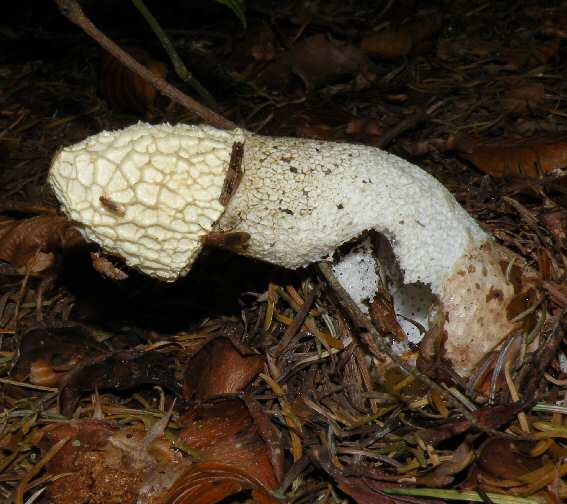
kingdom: Fungi
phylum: Basidiomycota
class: Agaricomycetes
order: Phallales
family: Phallaceae
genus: Phallus
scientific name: Phallus impudicus
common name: almindelig stinksvamp
